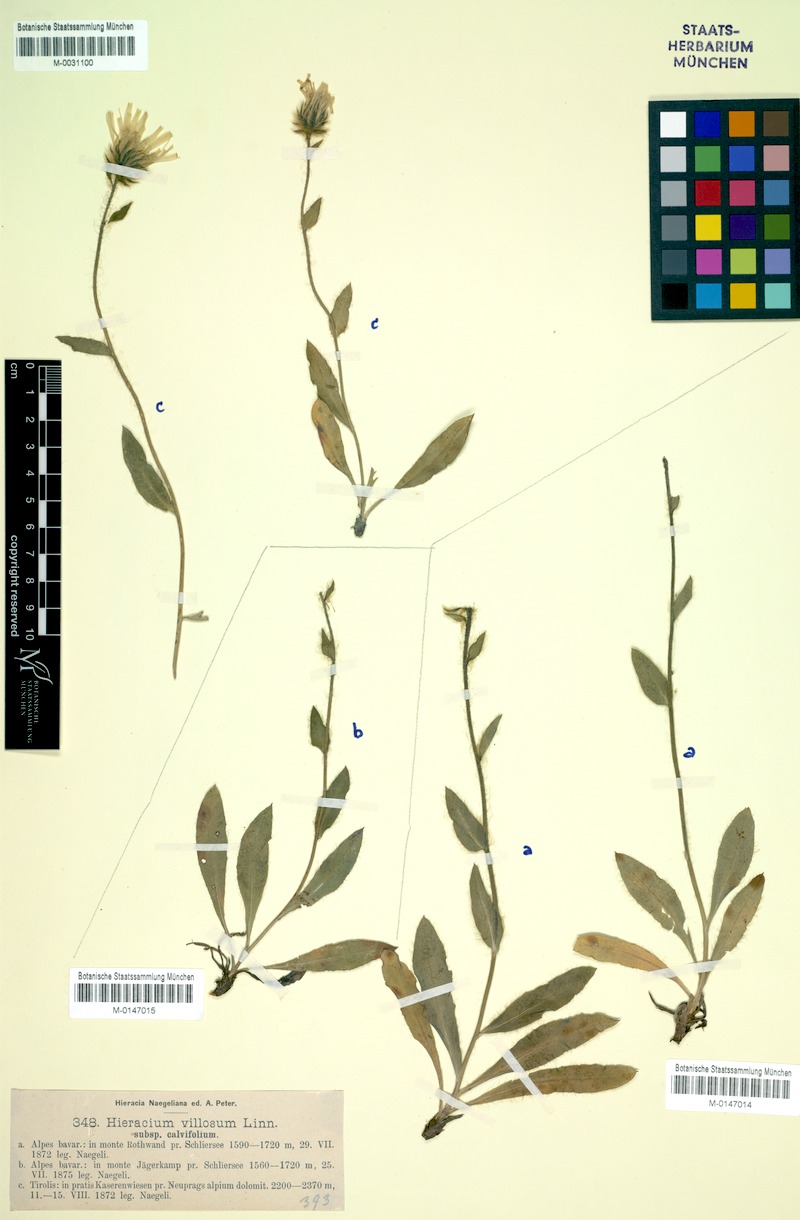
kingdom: Plantae
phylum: Tracheophyta
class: Magnoliopsida
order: Asterales
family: Asteraceae
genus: Hieracium
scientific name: Hieracium villosum
